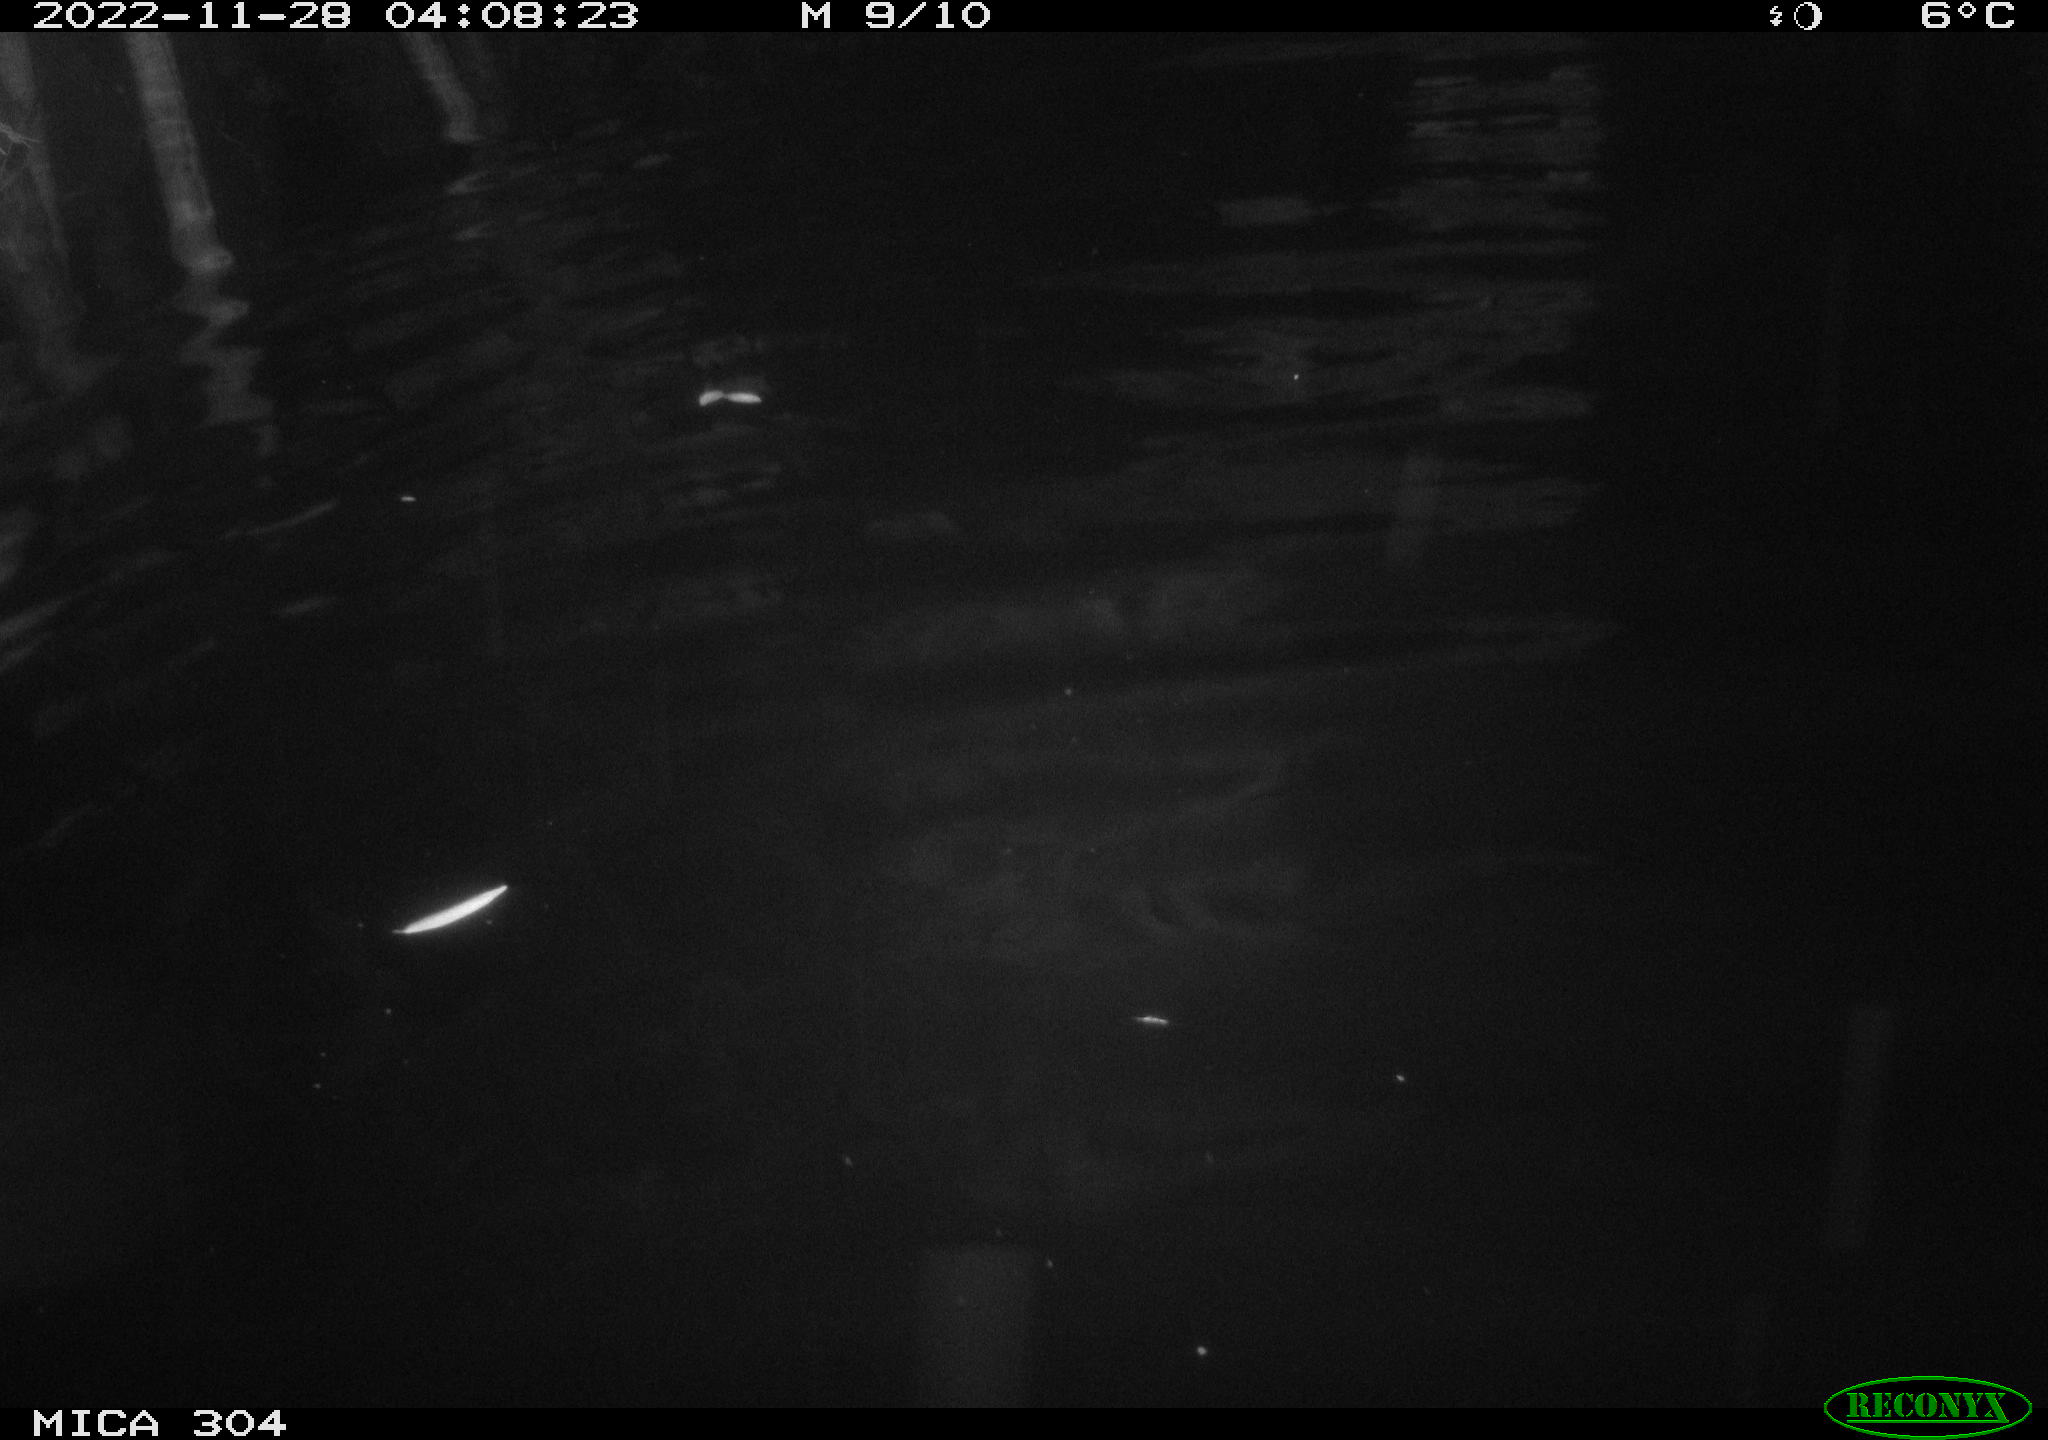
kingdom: Animalia
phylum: Chordata
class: Mammalia
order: Rodentia
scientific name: Rodentia
